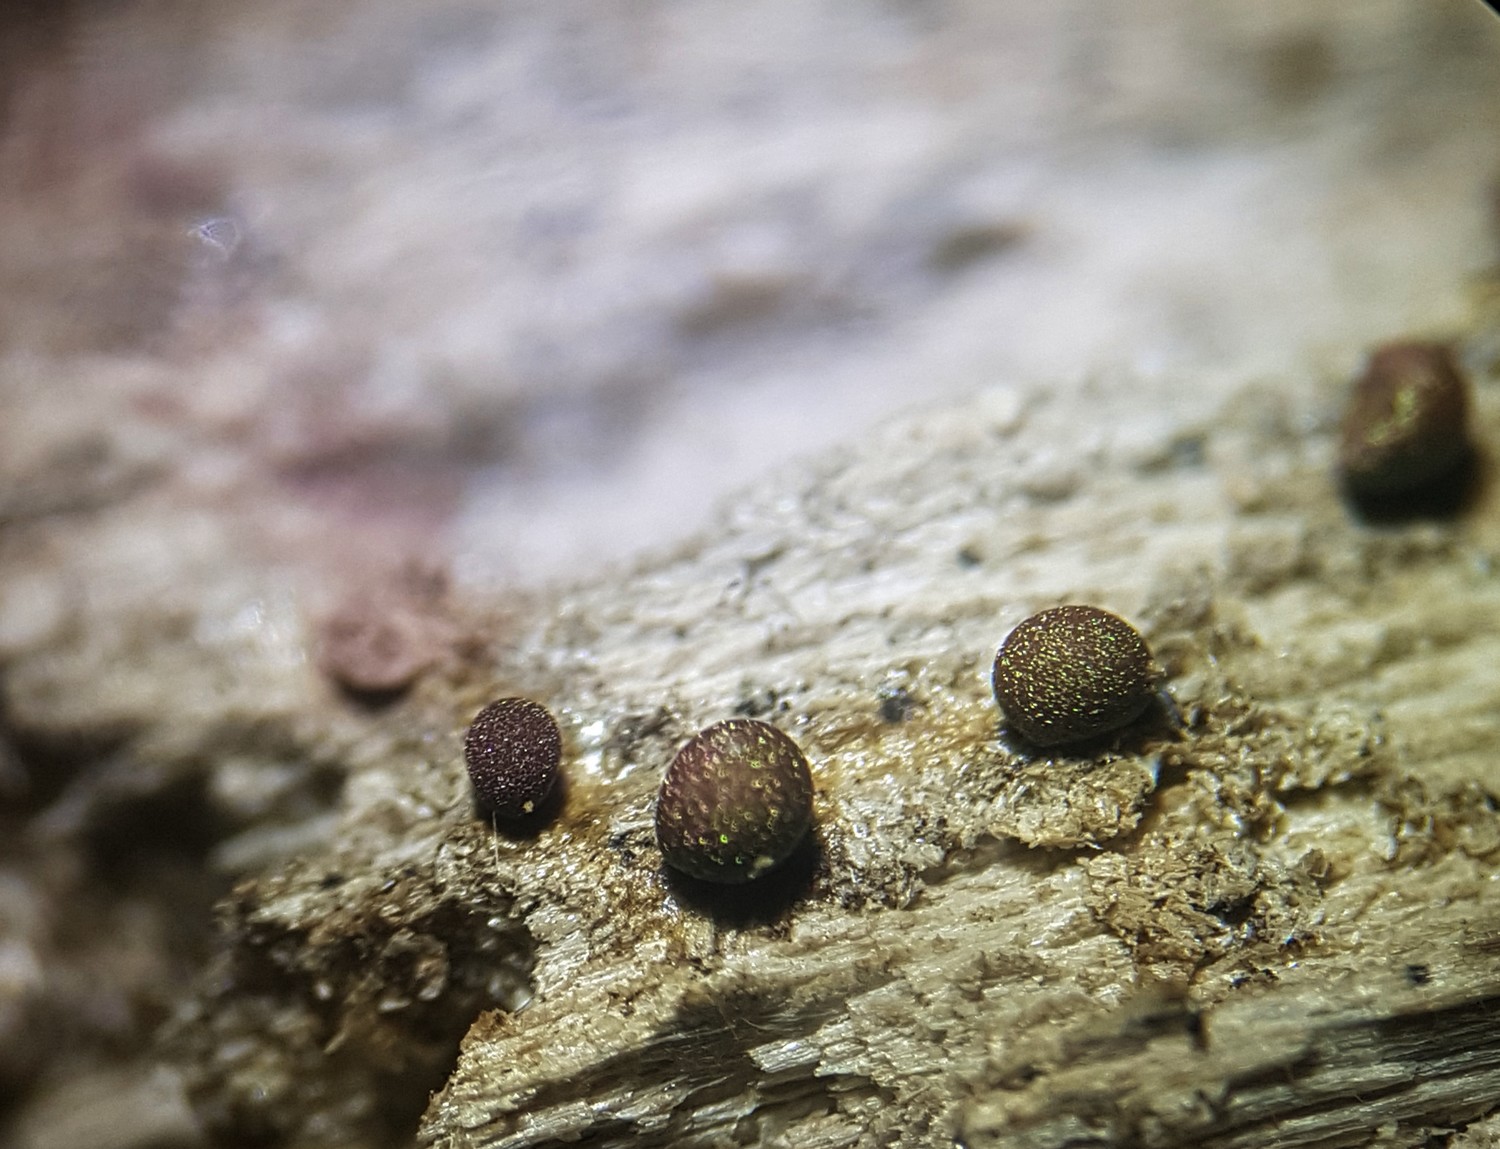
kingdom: Protozoa
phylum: Mycetozoa
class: Myxomycetes
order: Trichiales
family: Dianemataceae
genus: Prototrichia
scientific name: Prototrichia metallica
